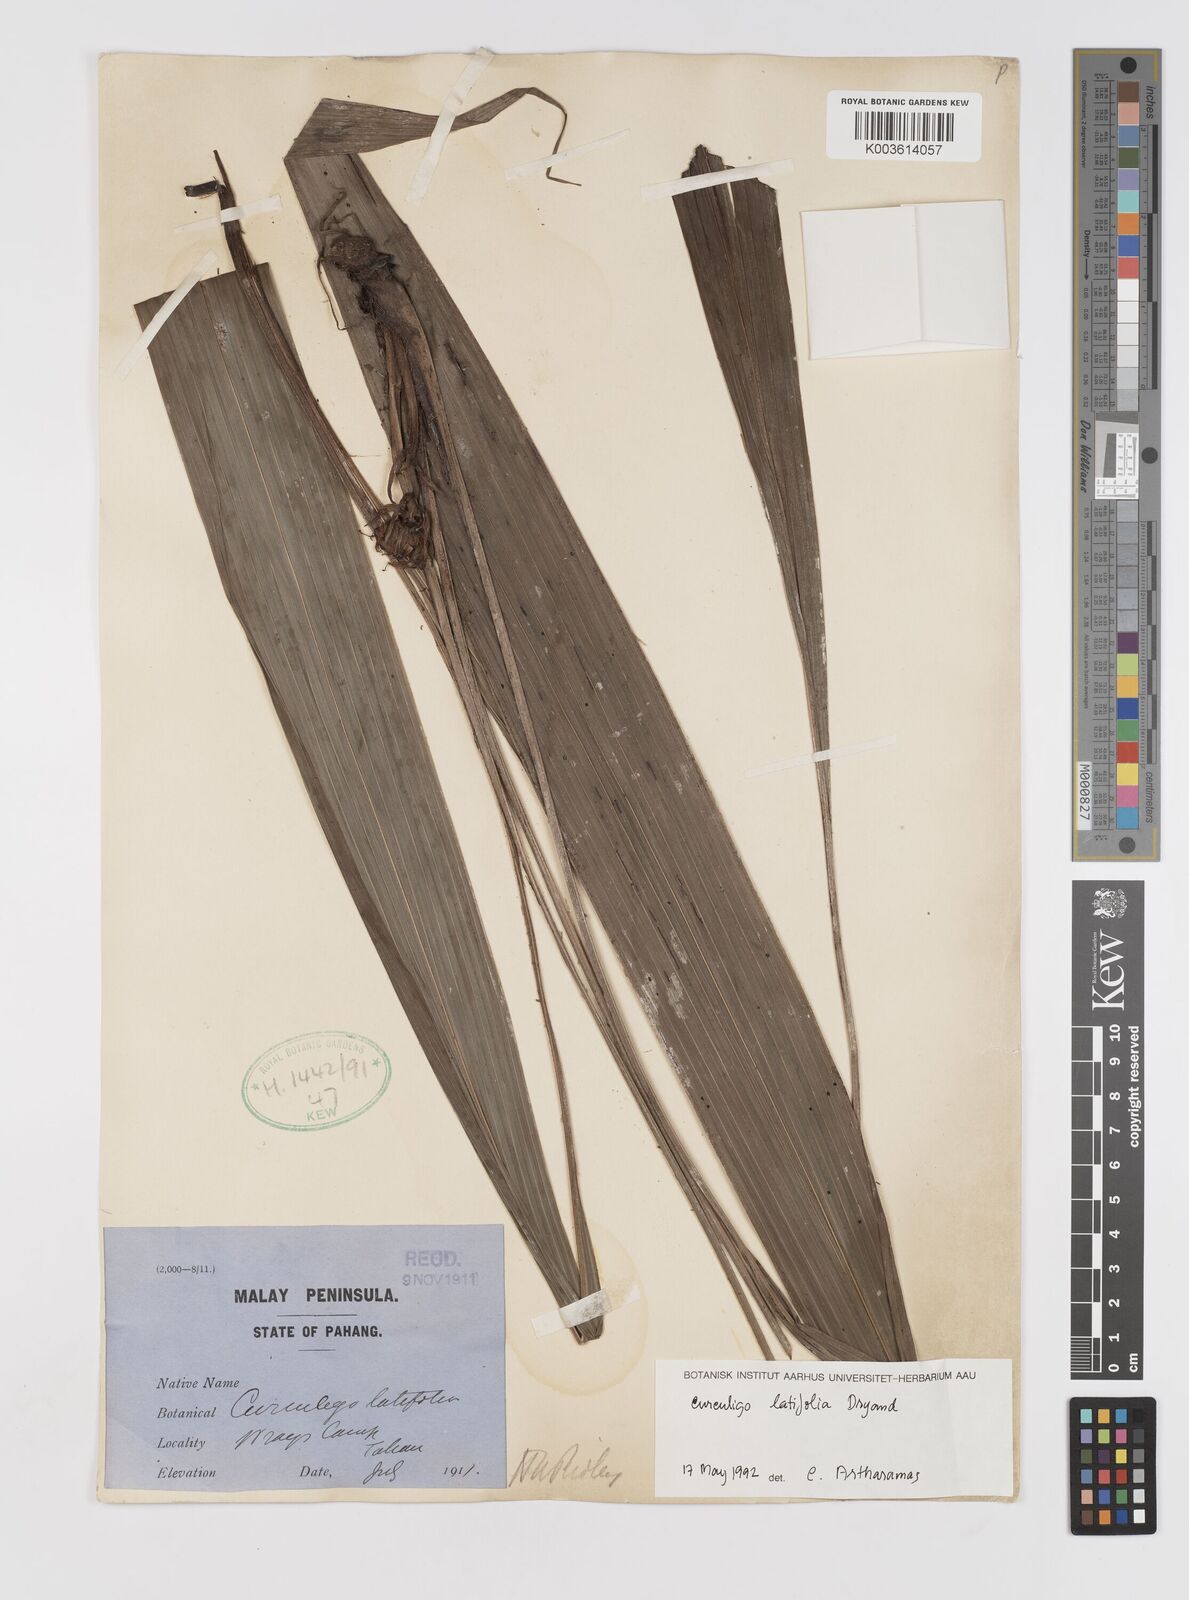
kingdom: Plantae
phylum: Tracheophyta
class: Liliopsida
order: Asparagales
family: Hypoxidaceae
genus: Curculigo
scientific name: Curculigo latifolia
